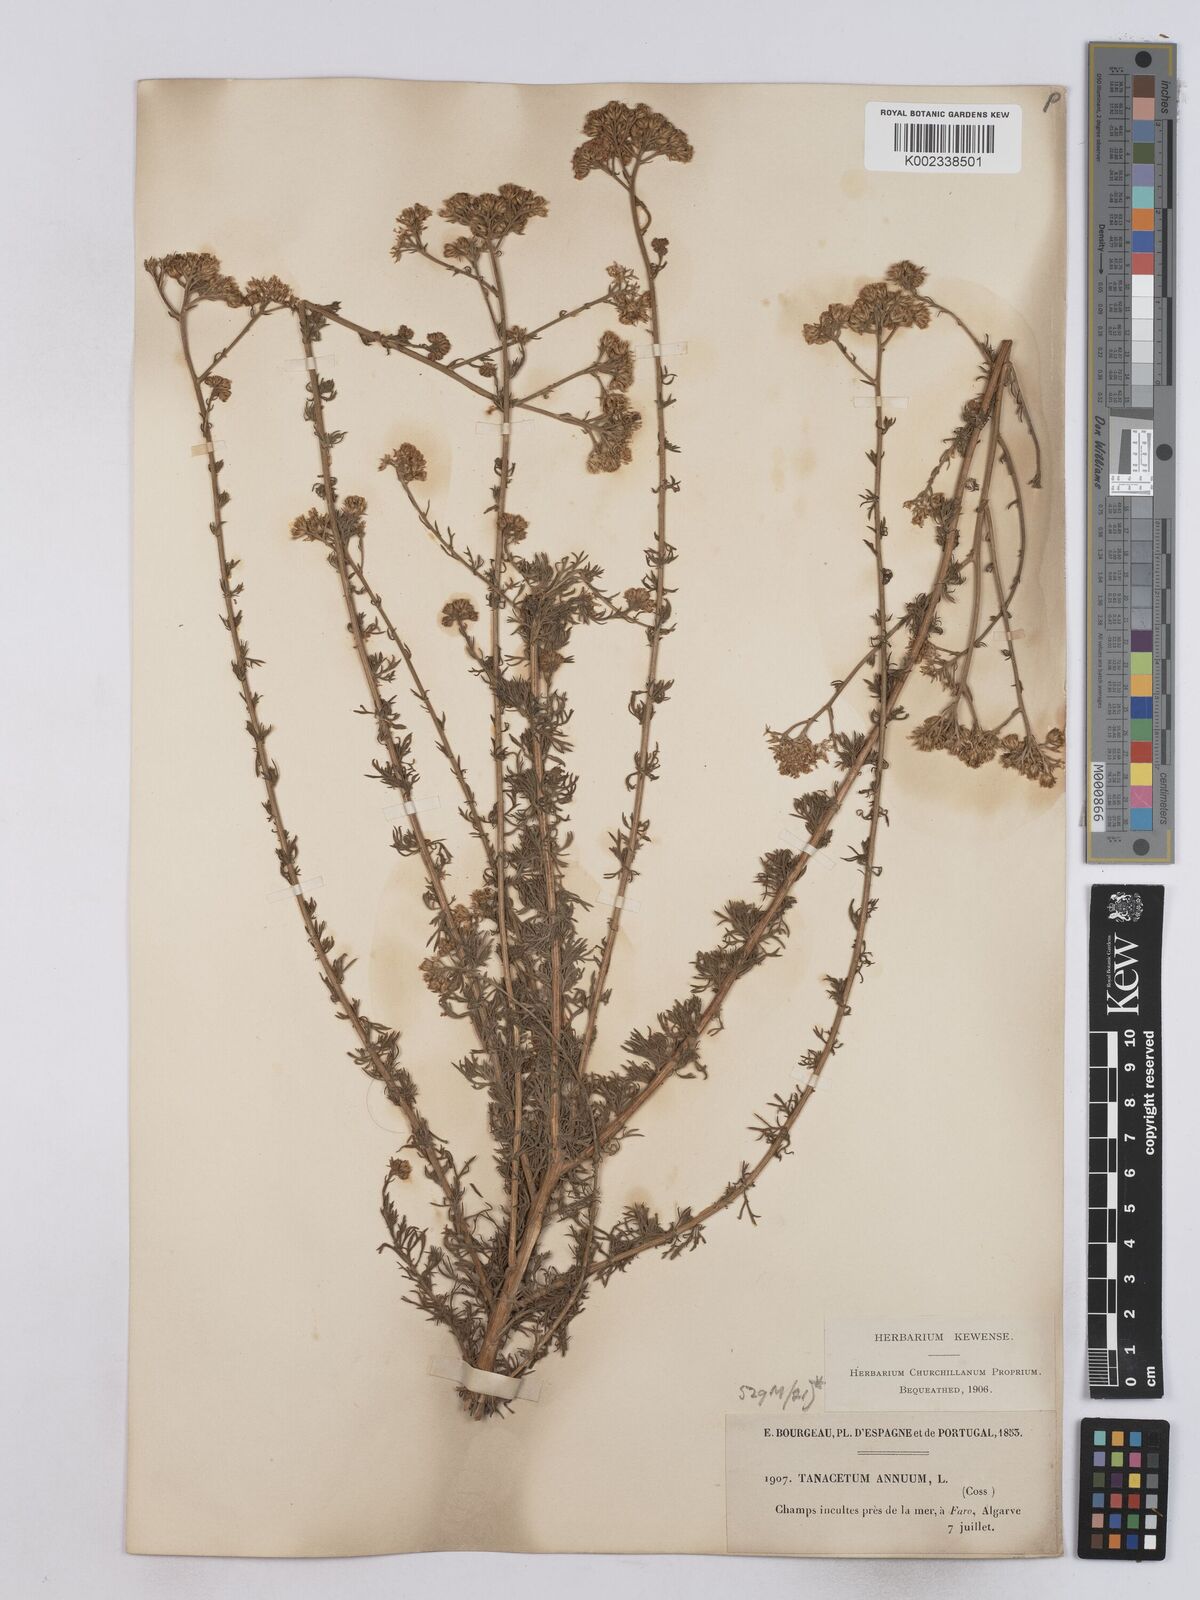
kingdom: Plantae
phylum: Tracheophyta
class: Magnoliopsida
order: Asterales
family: Asteraceae
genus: Vogtia
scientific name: Vogtia annua
